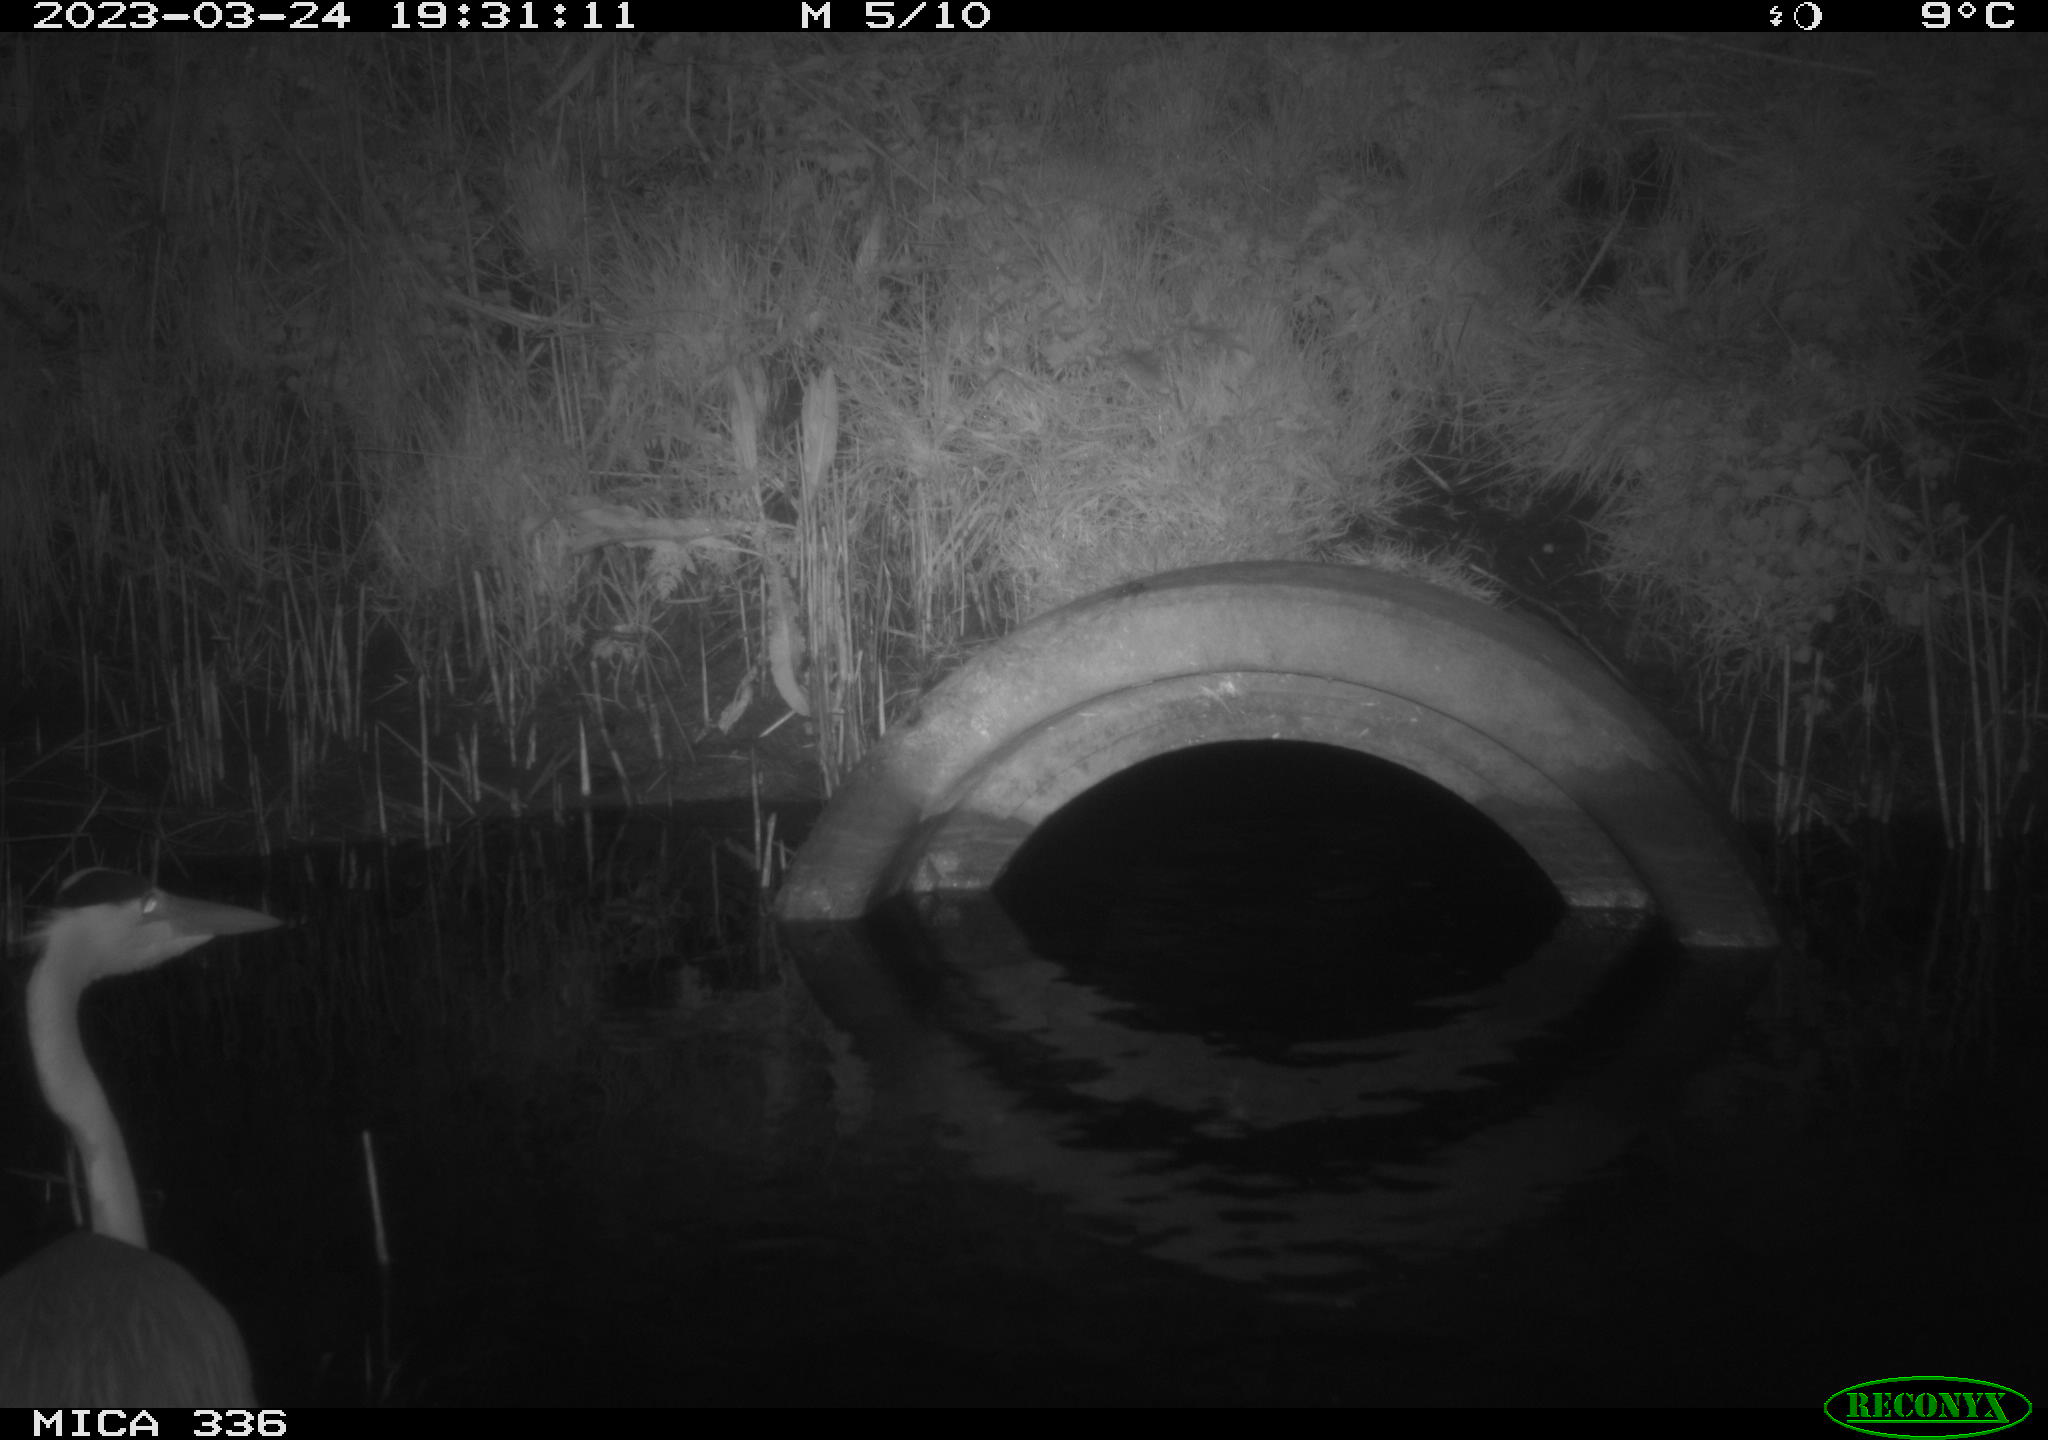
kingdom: Animalia
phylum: Chordata
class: Aves
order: Pelecaniformes
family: Ardeidae
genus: Ardea
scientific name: Ardea cinerea
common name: Grey heron
